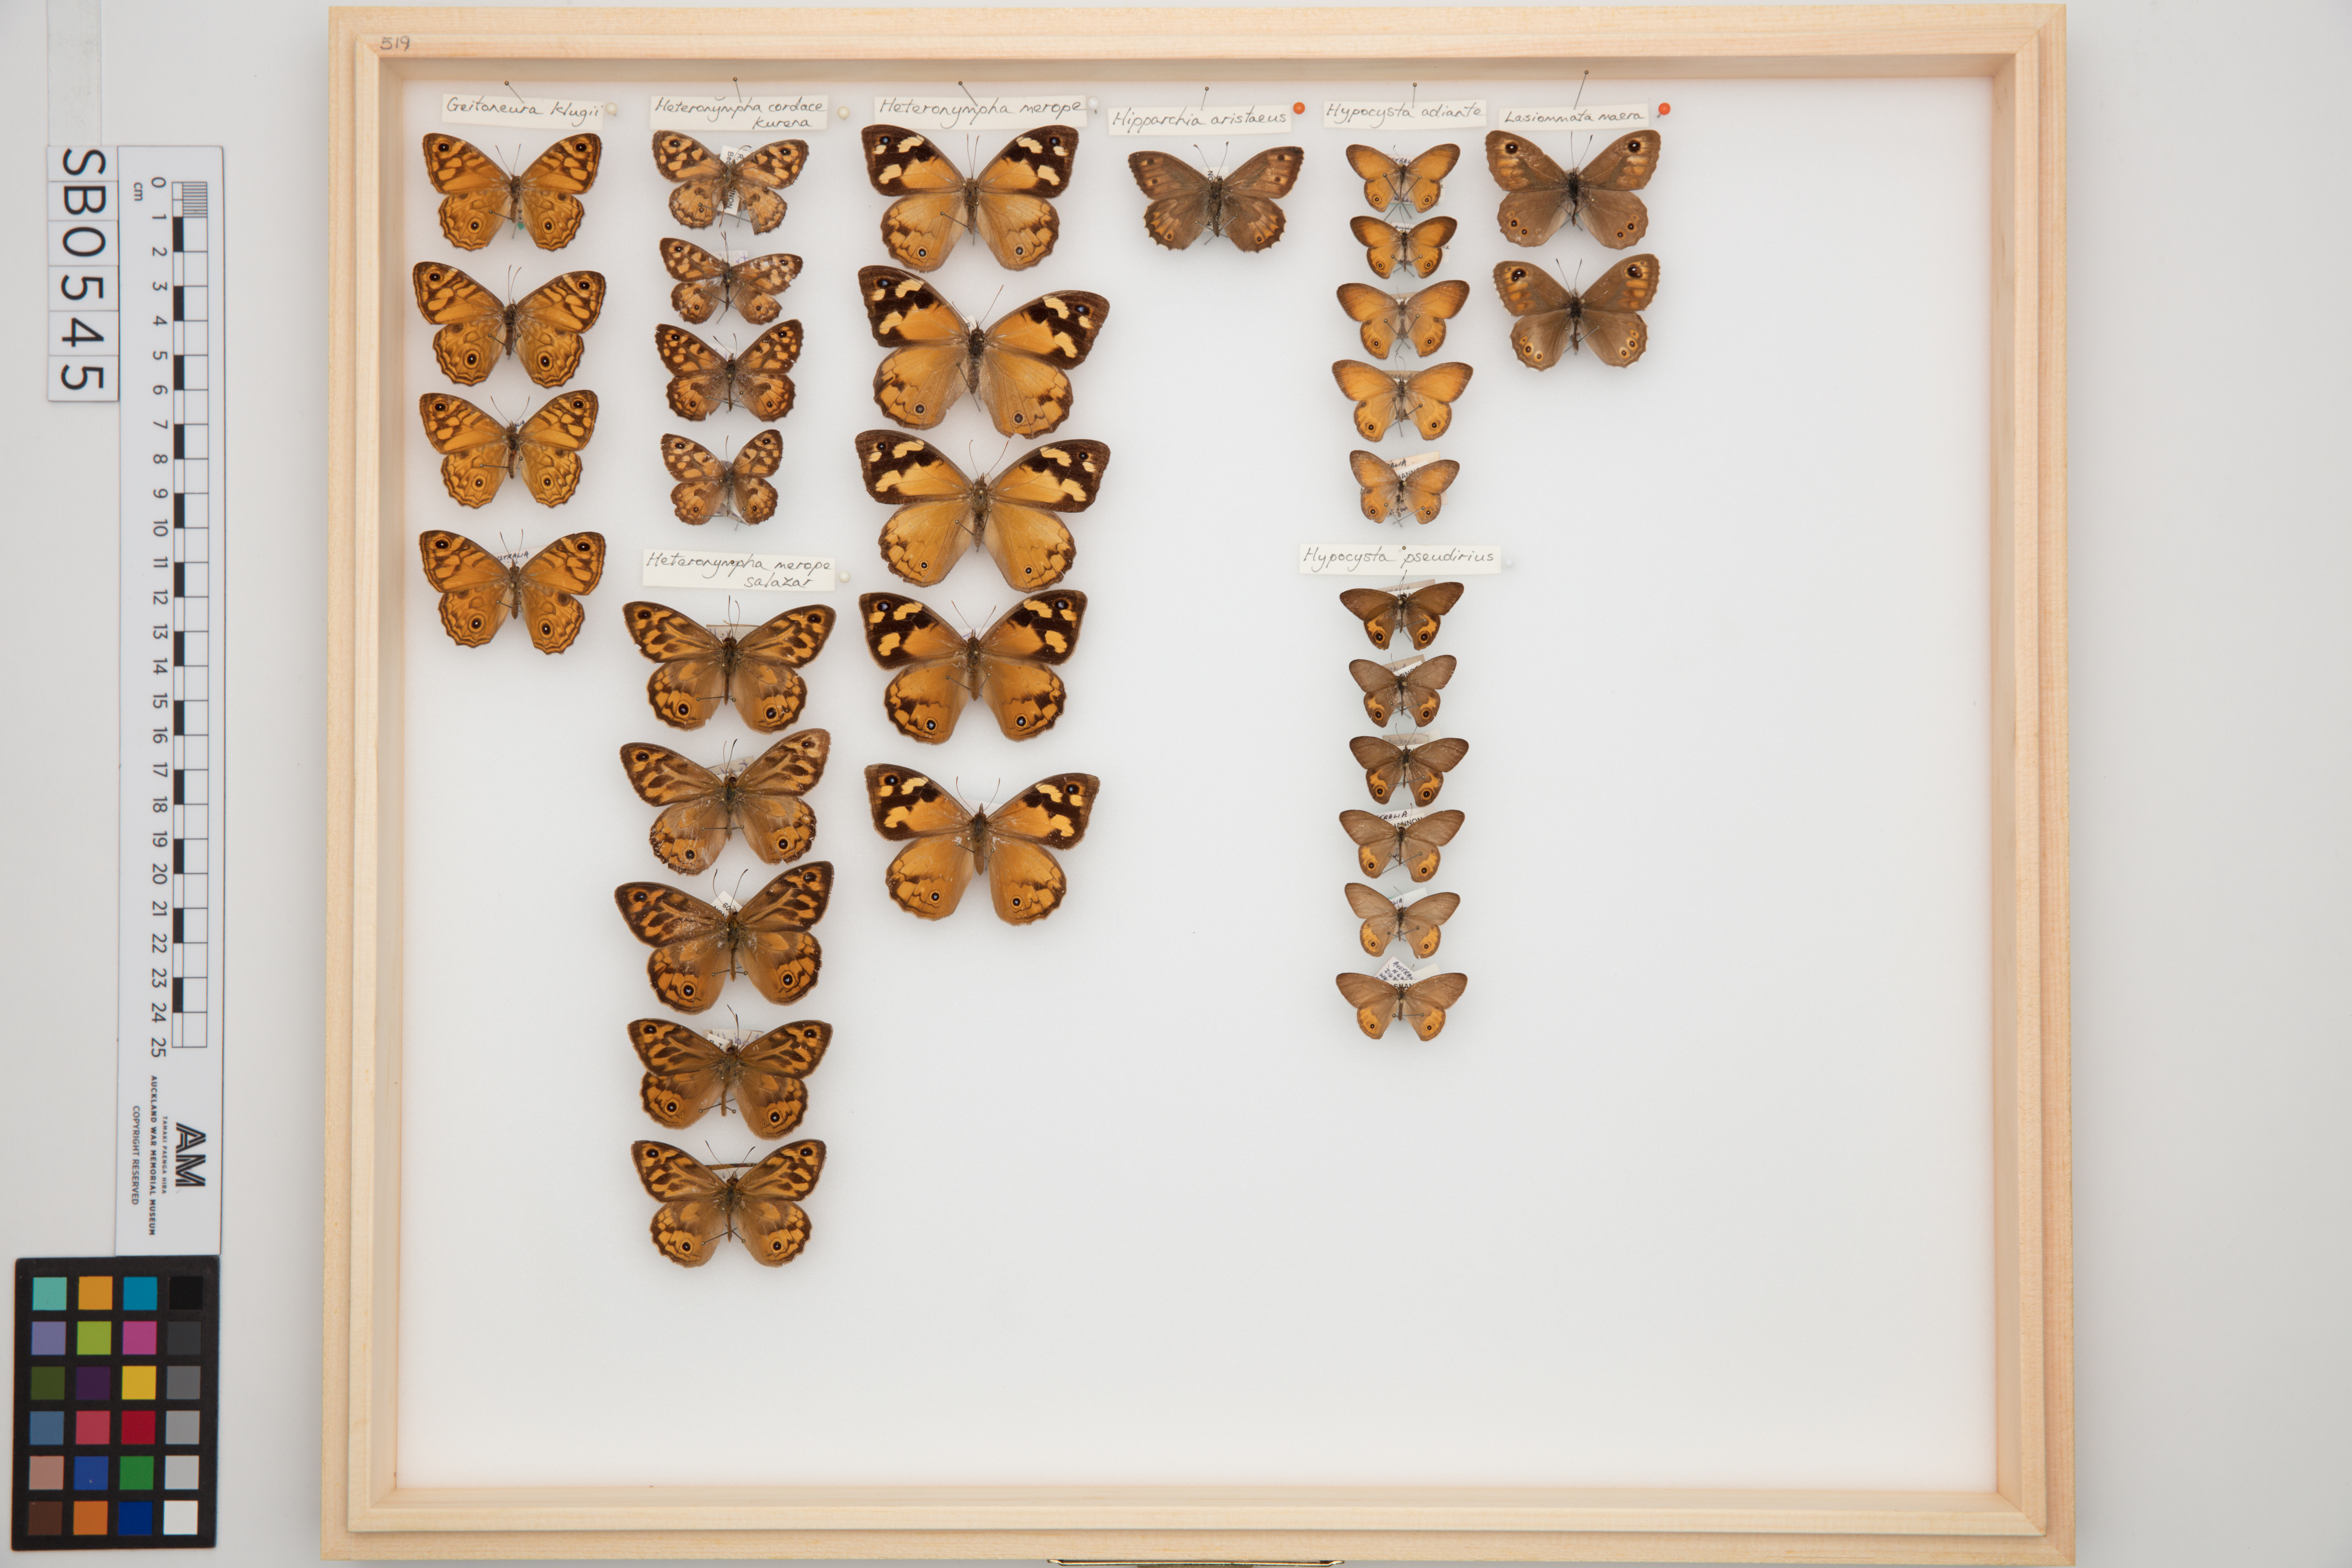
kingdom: Animalia
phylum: Arthropoda
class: Insecta
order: Lepidoptera
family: Nymphalidae
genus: Heteronympha
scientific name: Heteronympha merope
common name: Common brown
